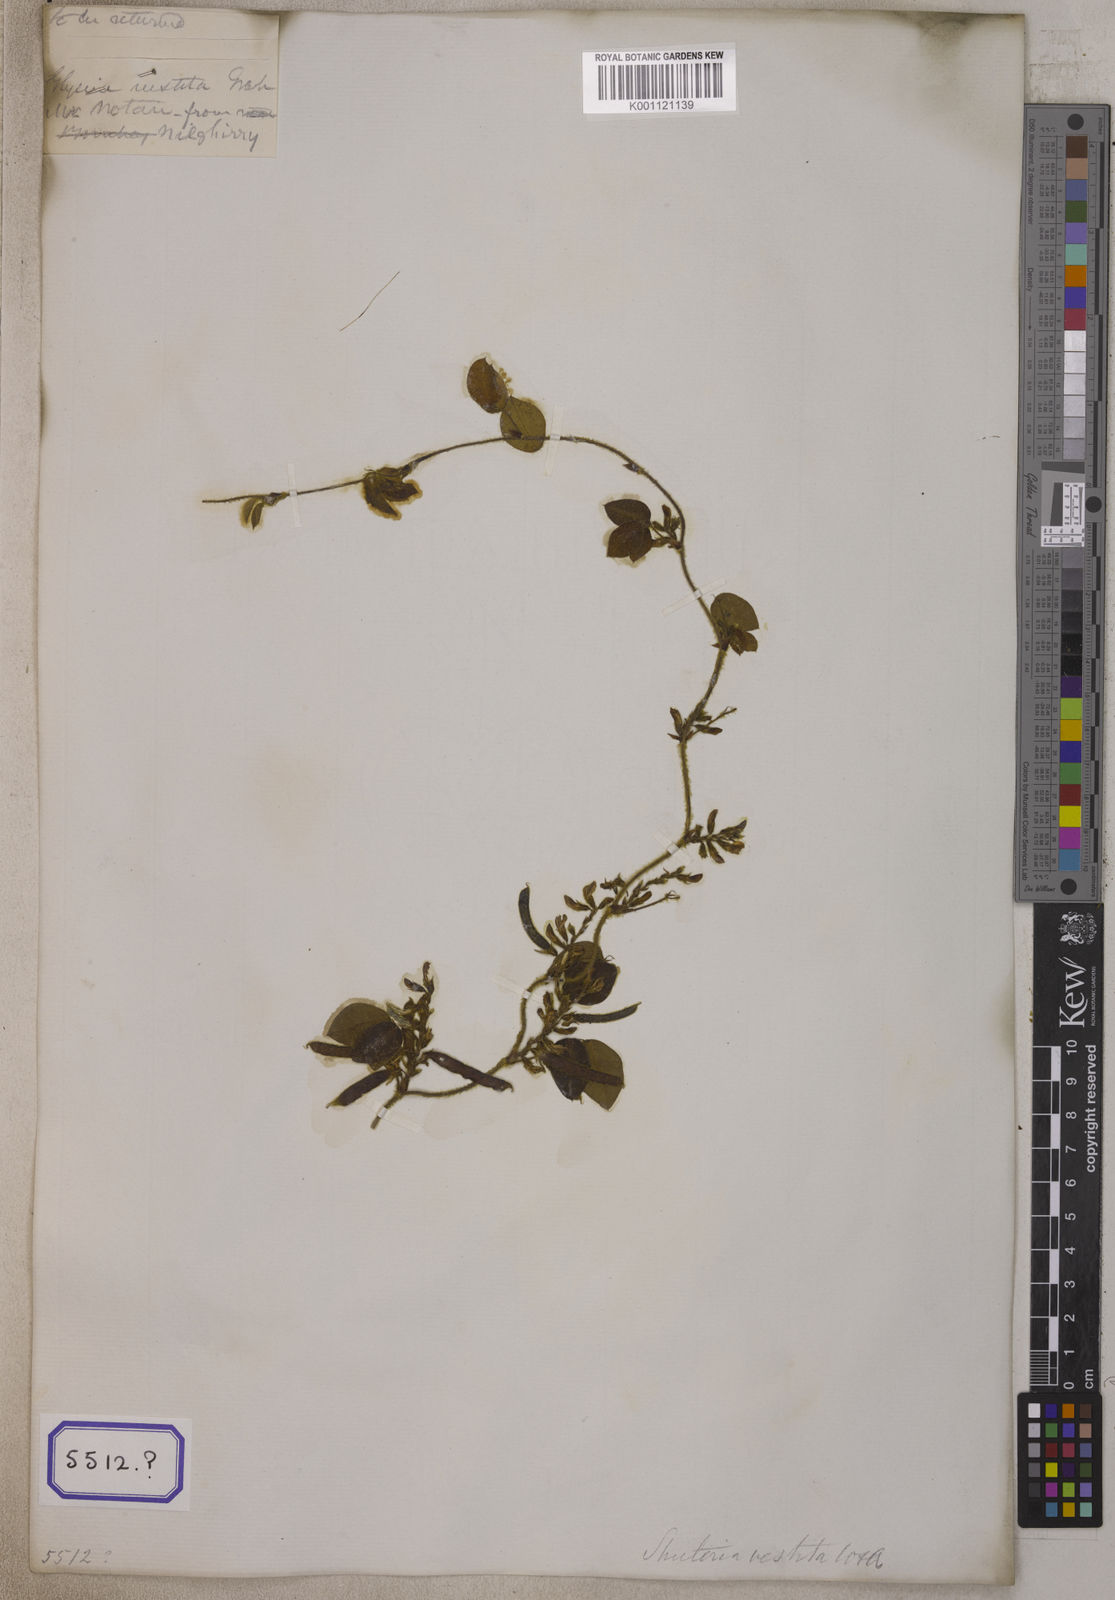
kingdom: Plantae
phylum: Tracheophyta
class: Magnoliopsida
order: Fabales
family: Fabaceae
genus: Shuteria
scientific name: Shuteria vestita
